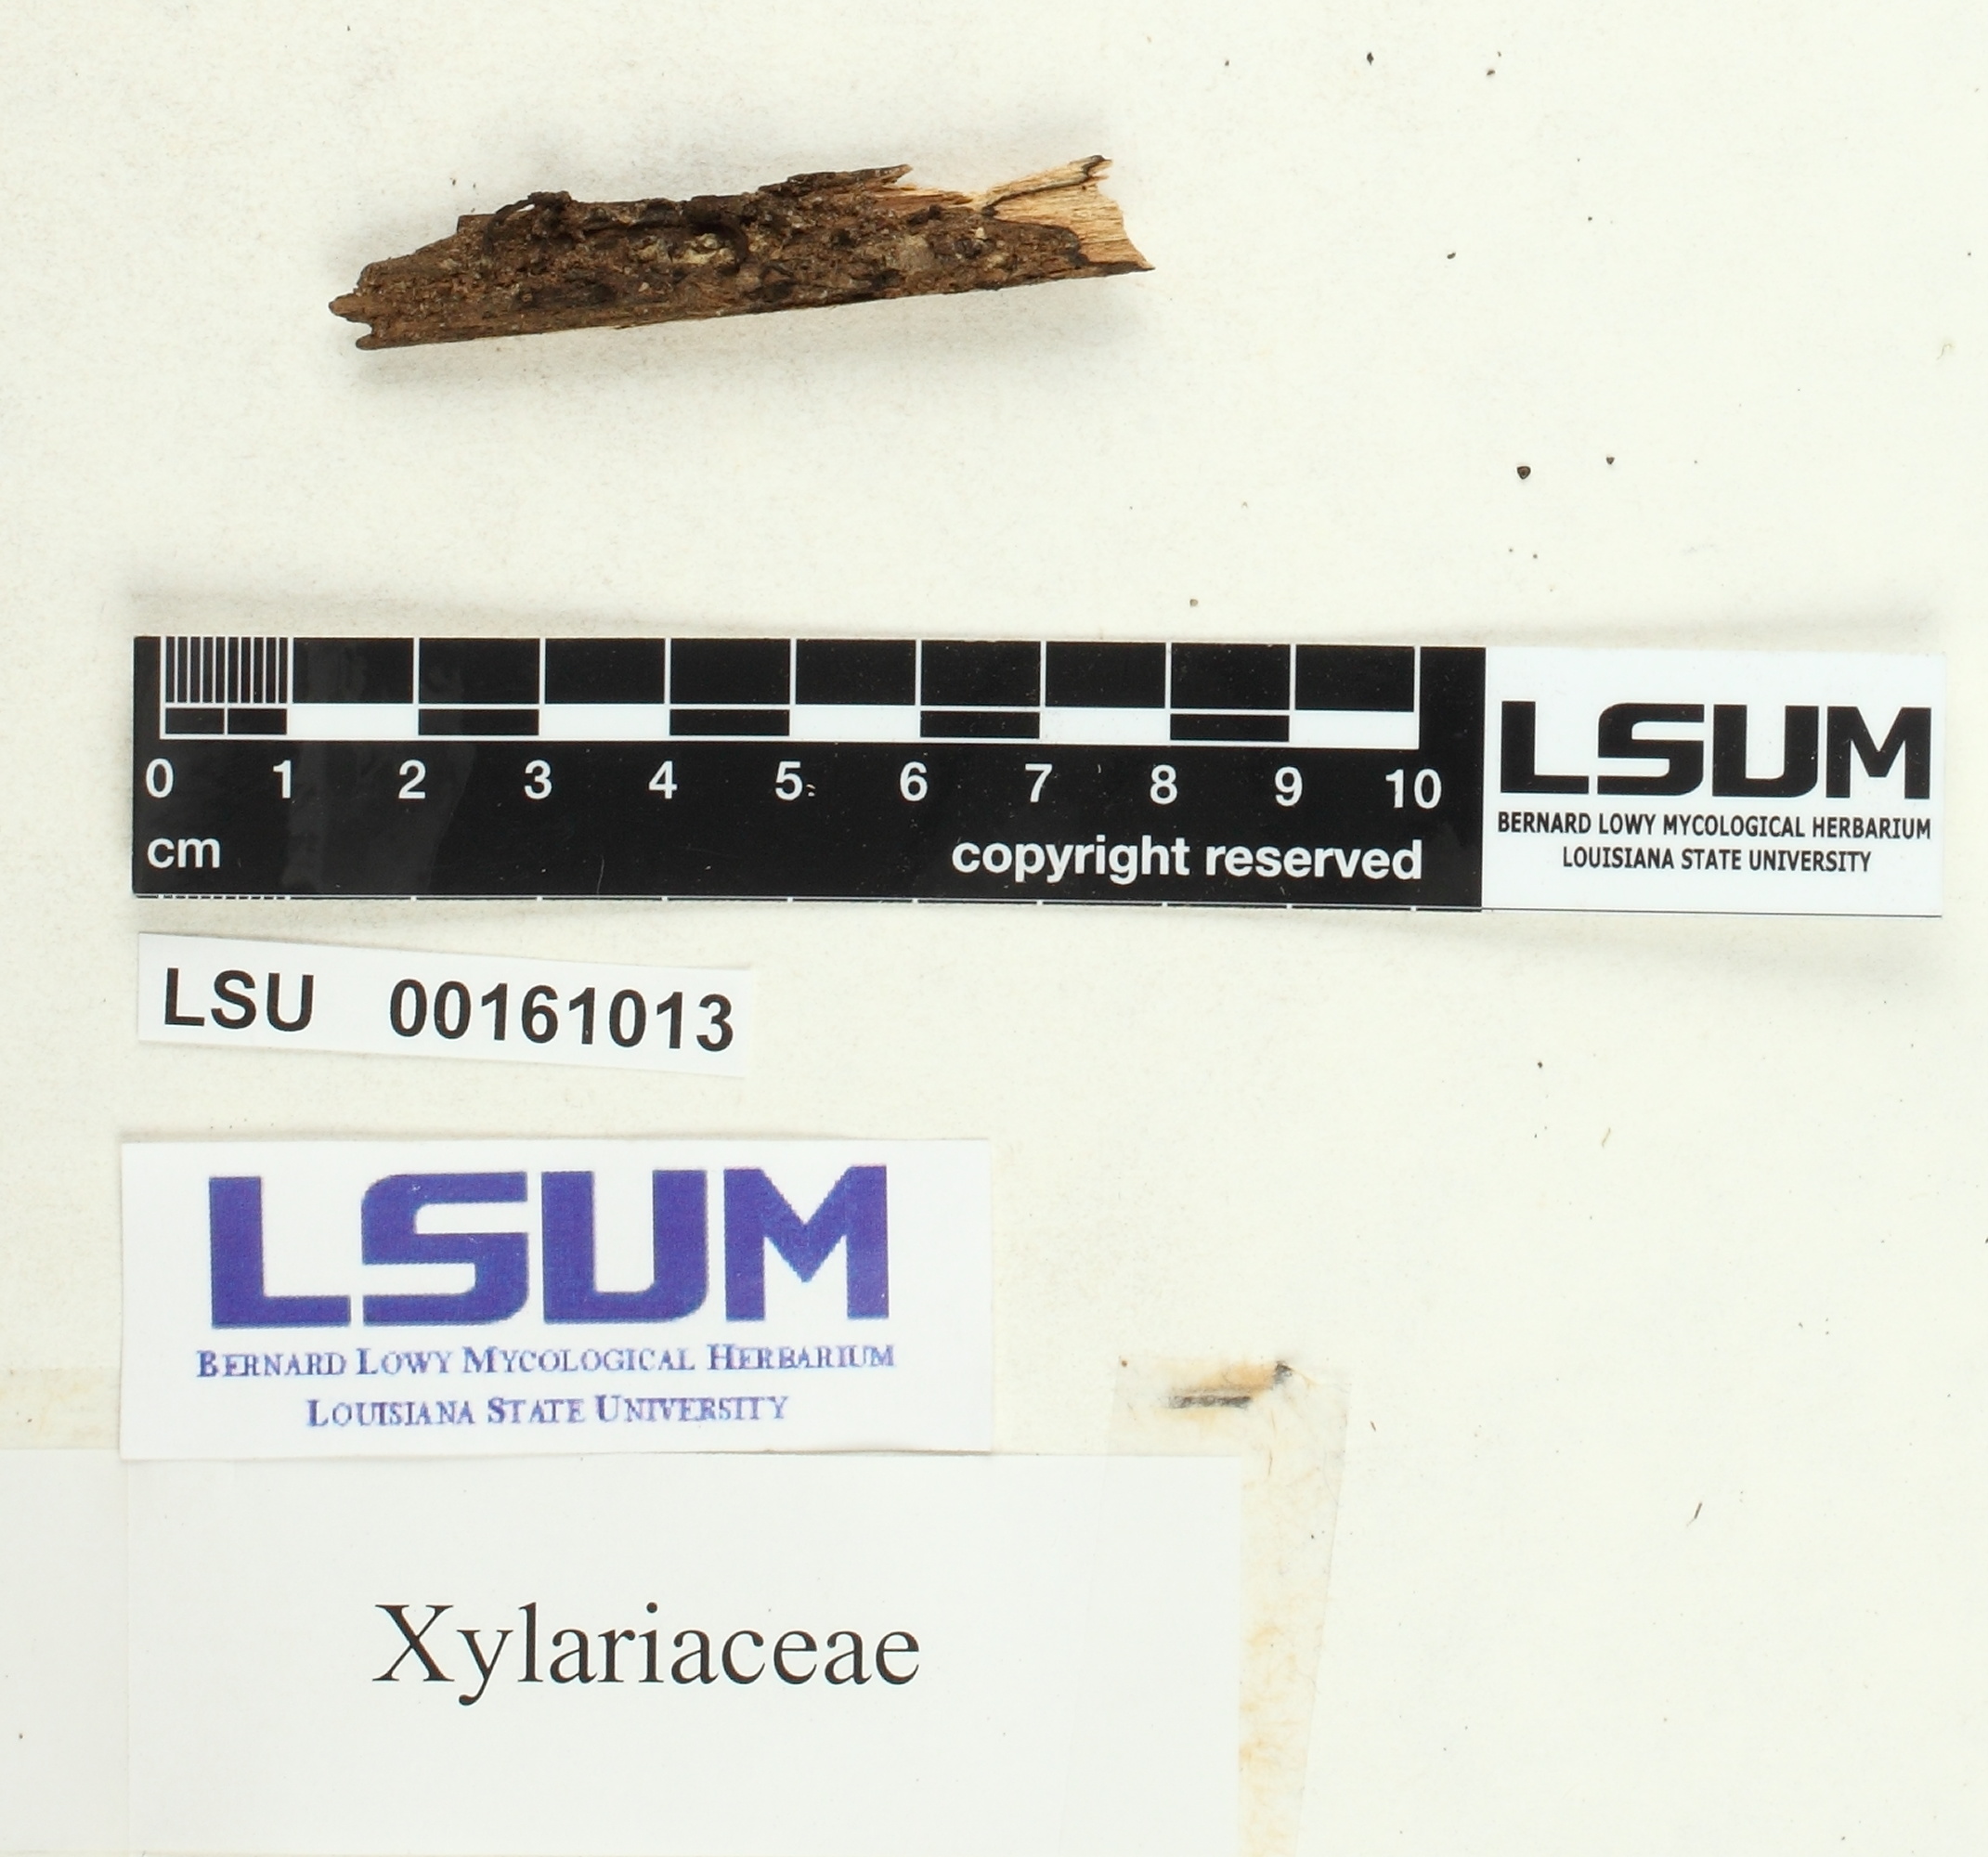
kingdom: Fungi
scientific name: Fungi
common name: Fungi
